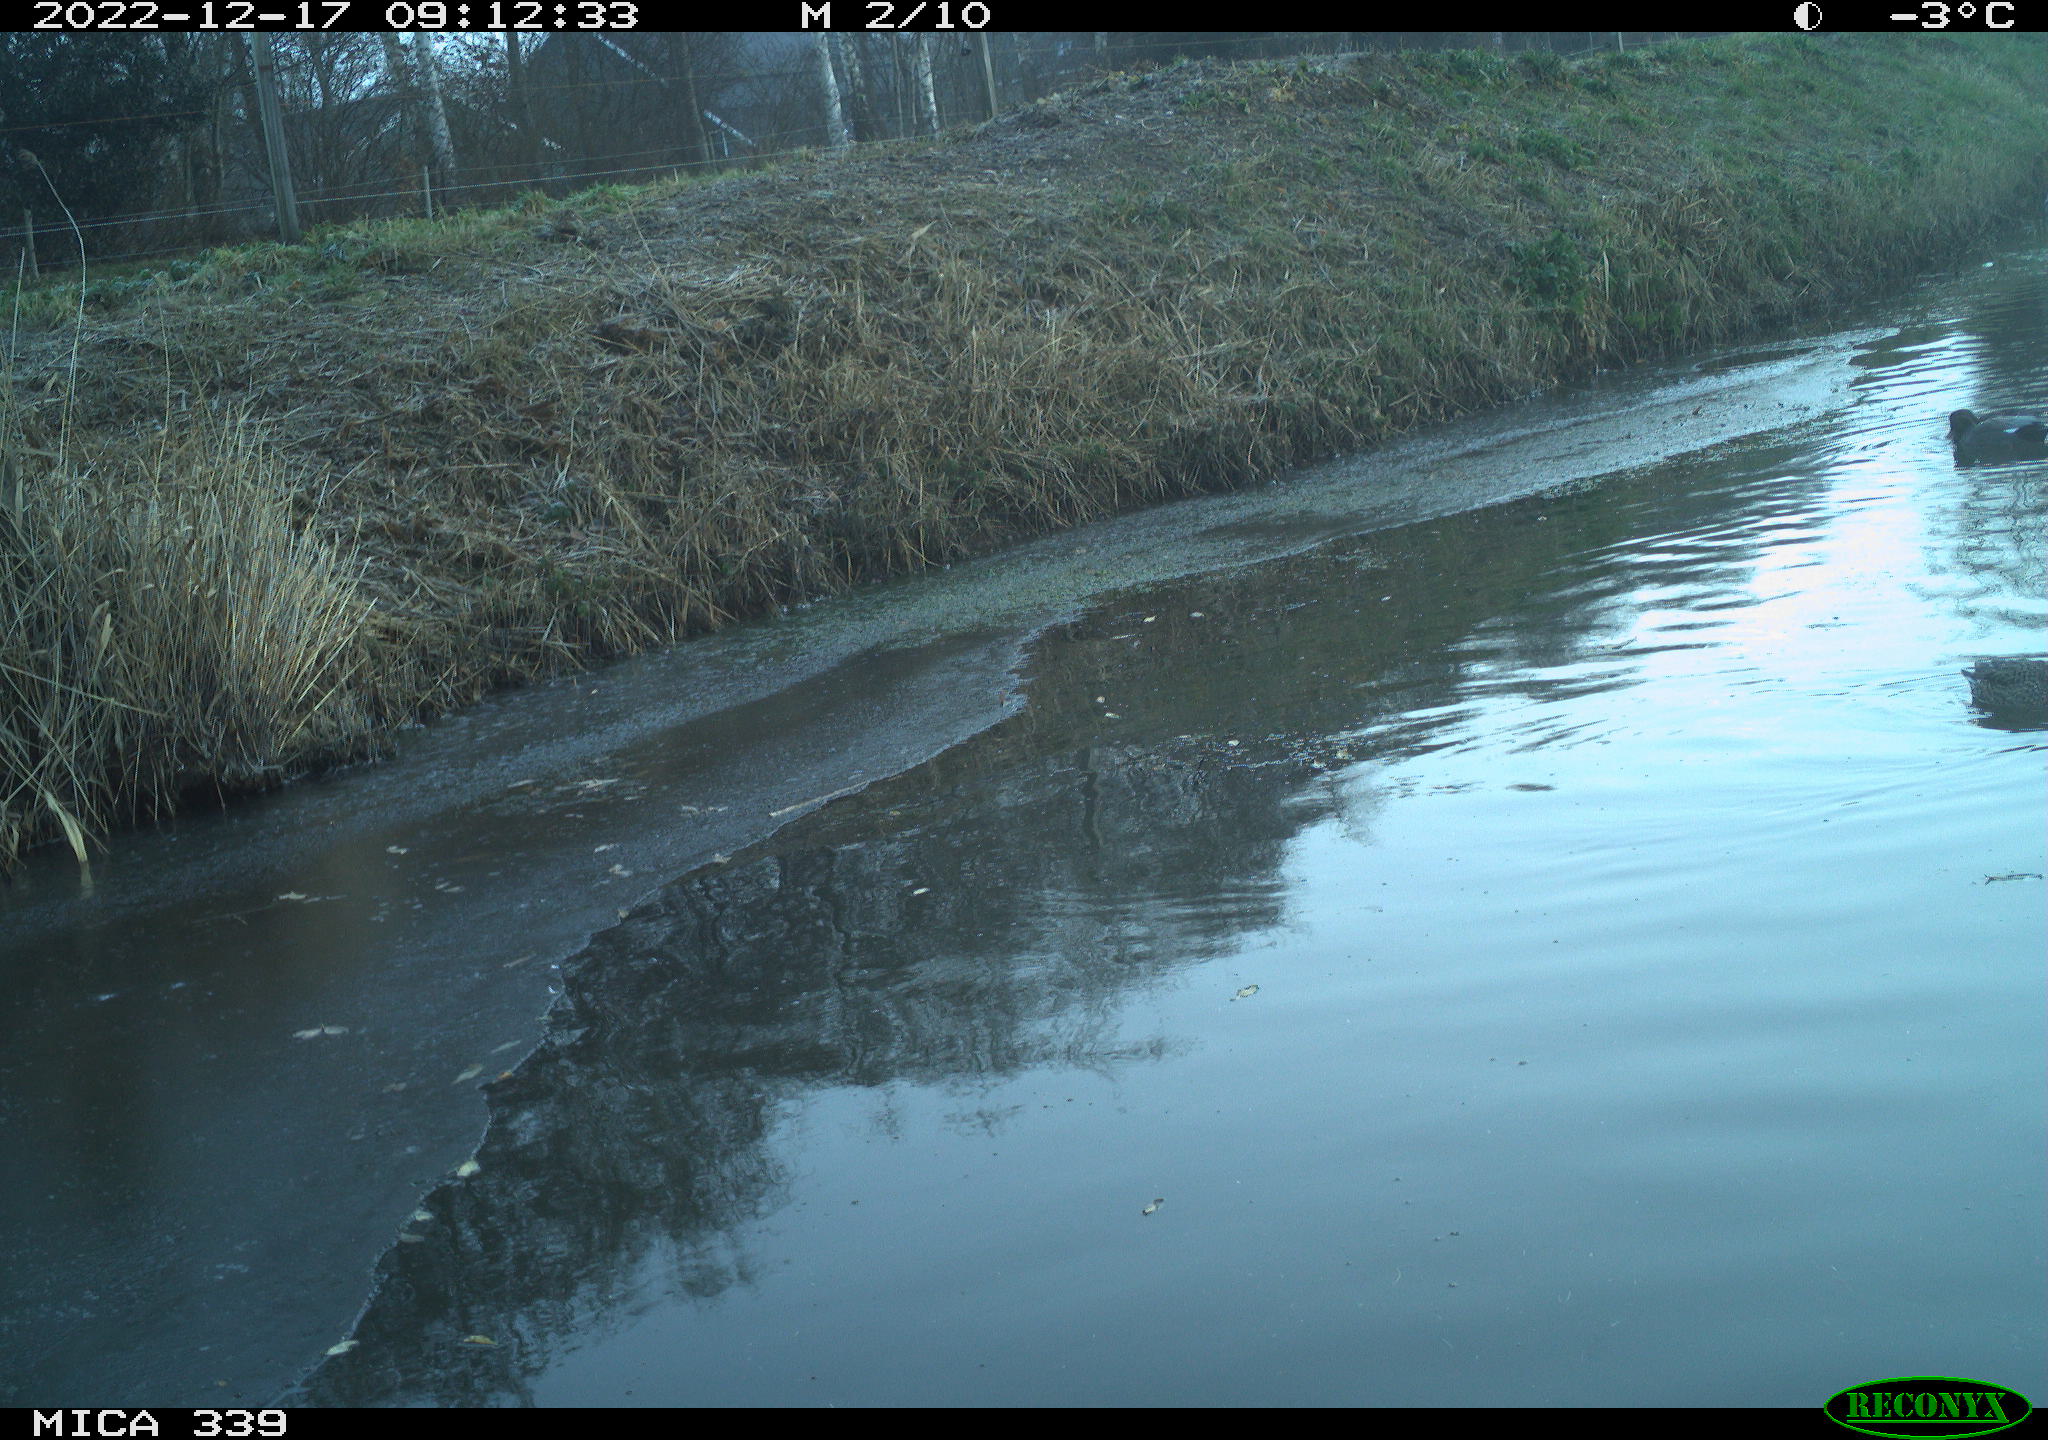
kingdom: Animalia
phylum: Chordata
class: Aves
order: Anseriformes
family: Anatidae
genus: Anas
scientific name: Anas
